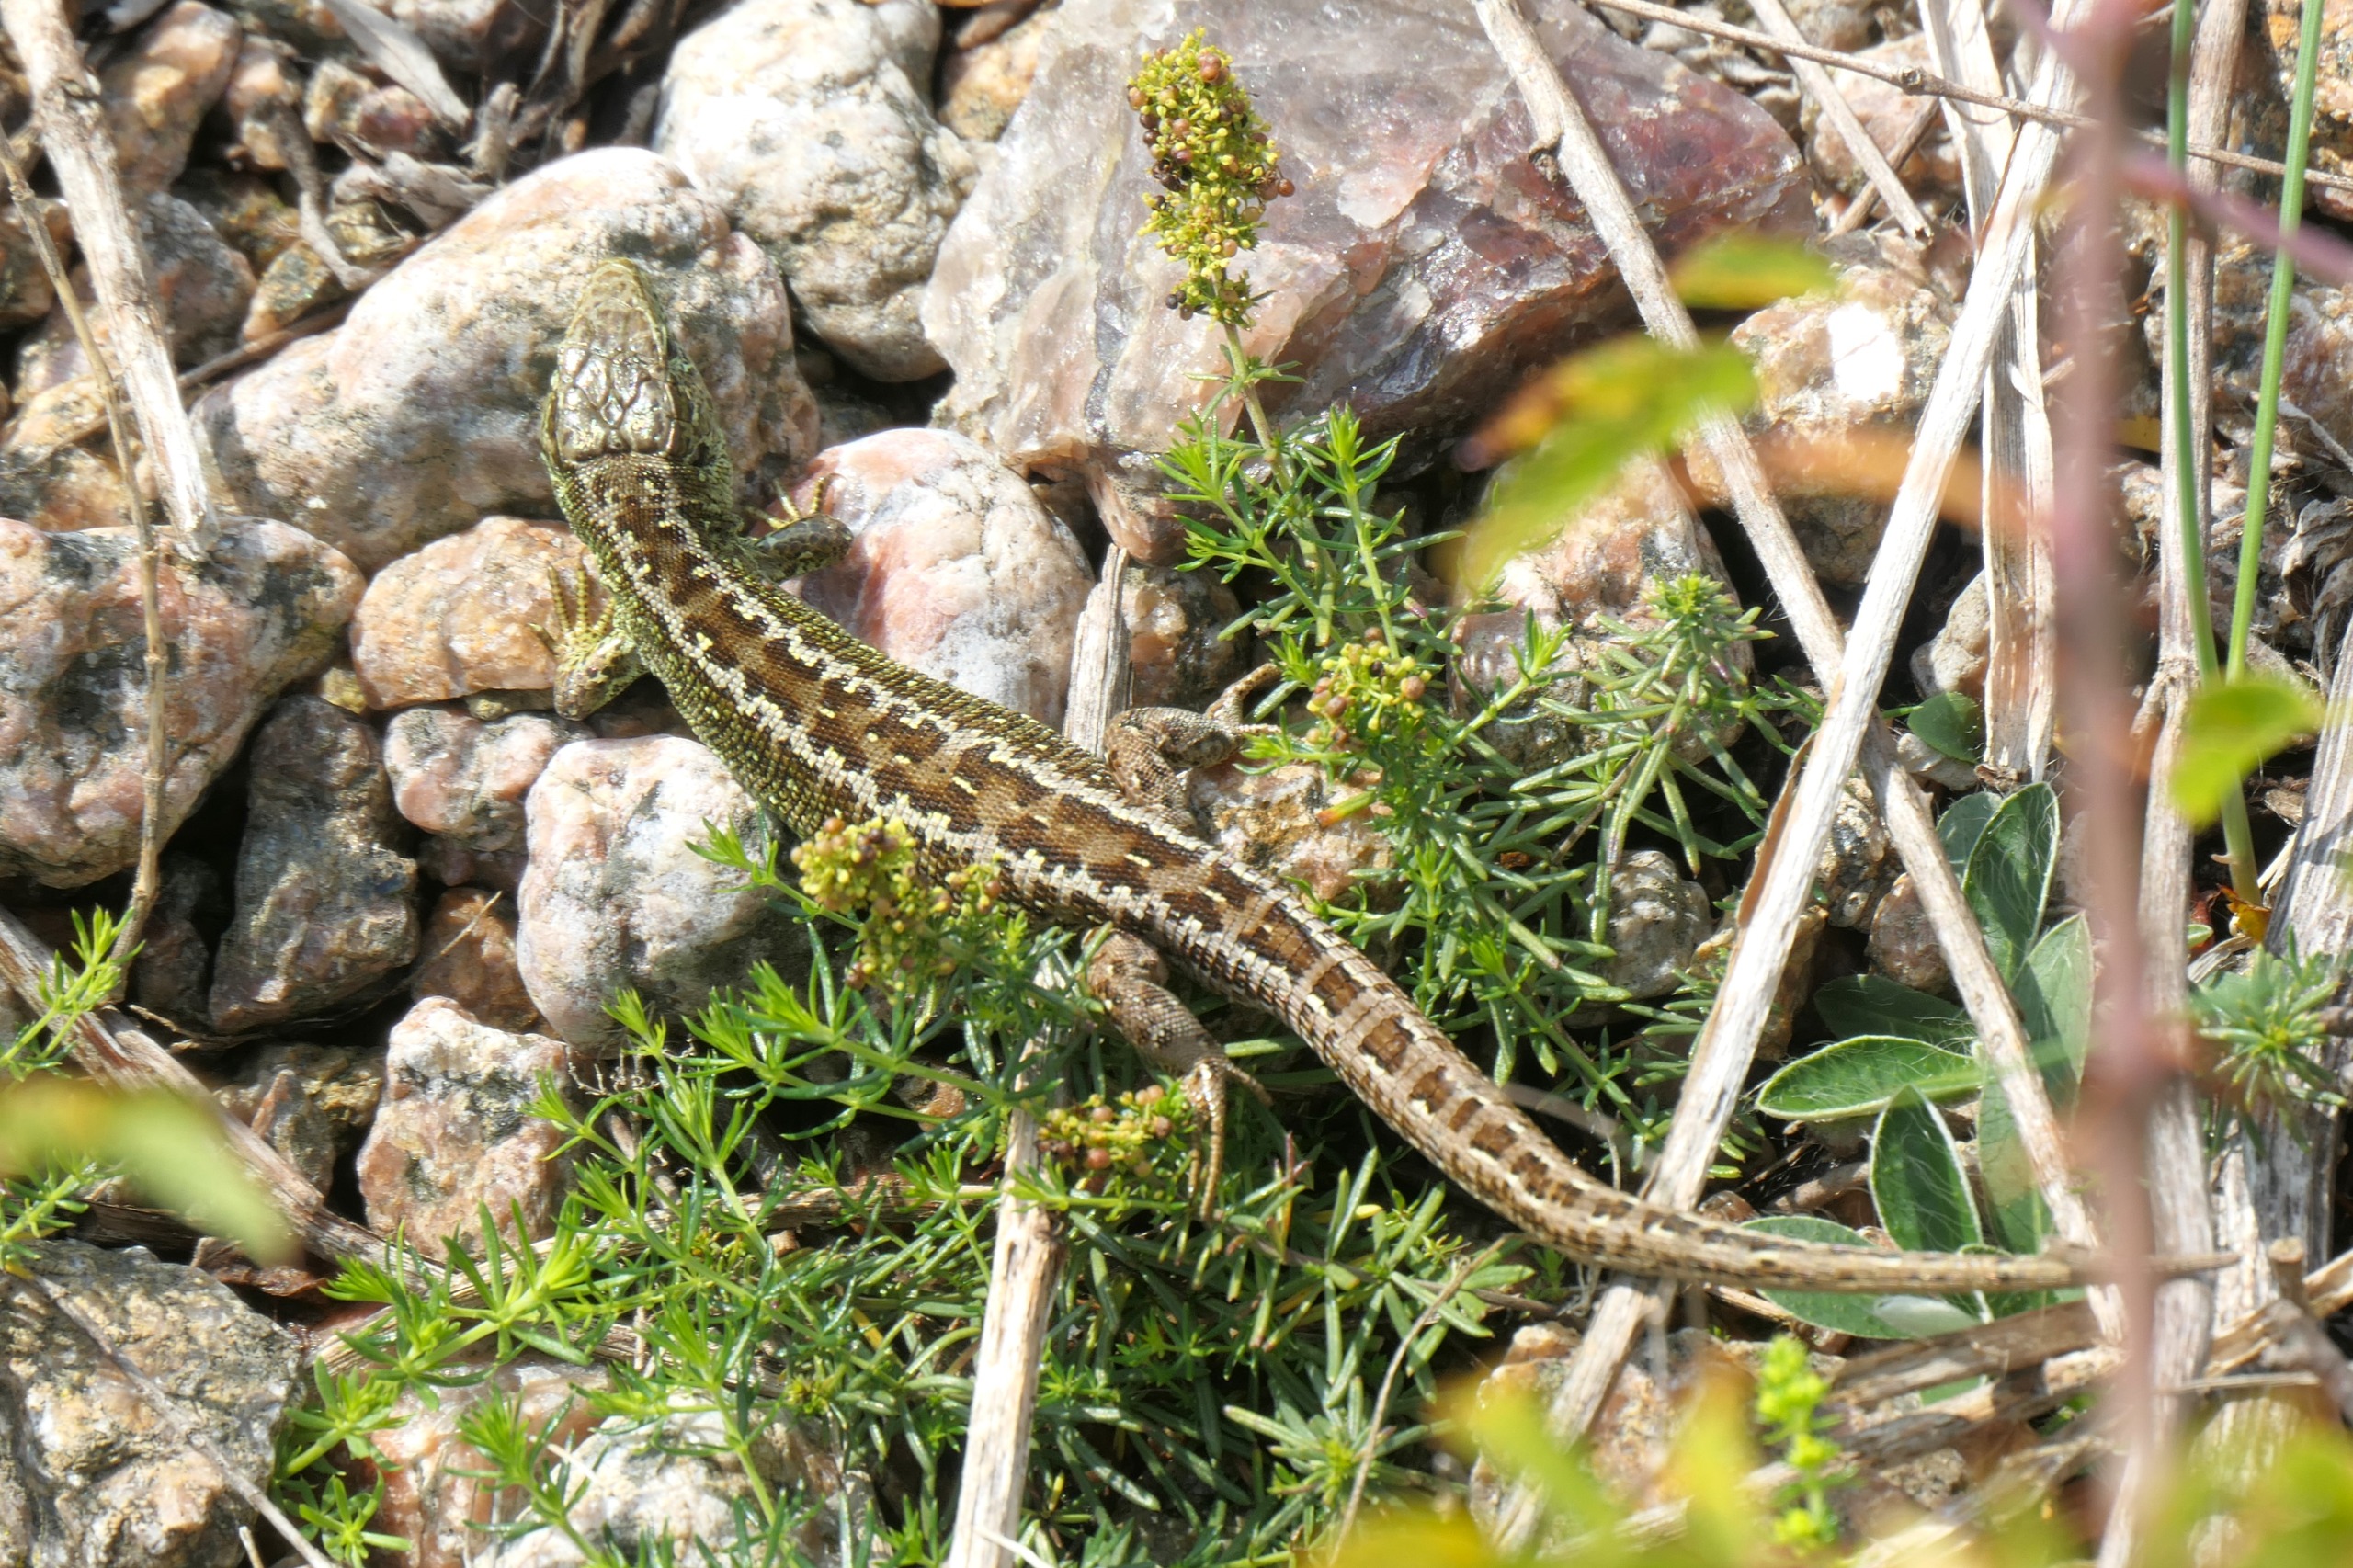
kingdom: Animalia
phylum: Chordata
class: Squamata
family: Lacertidae
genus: Lacerta
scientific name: Lacerta agilis
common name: Markfirben
